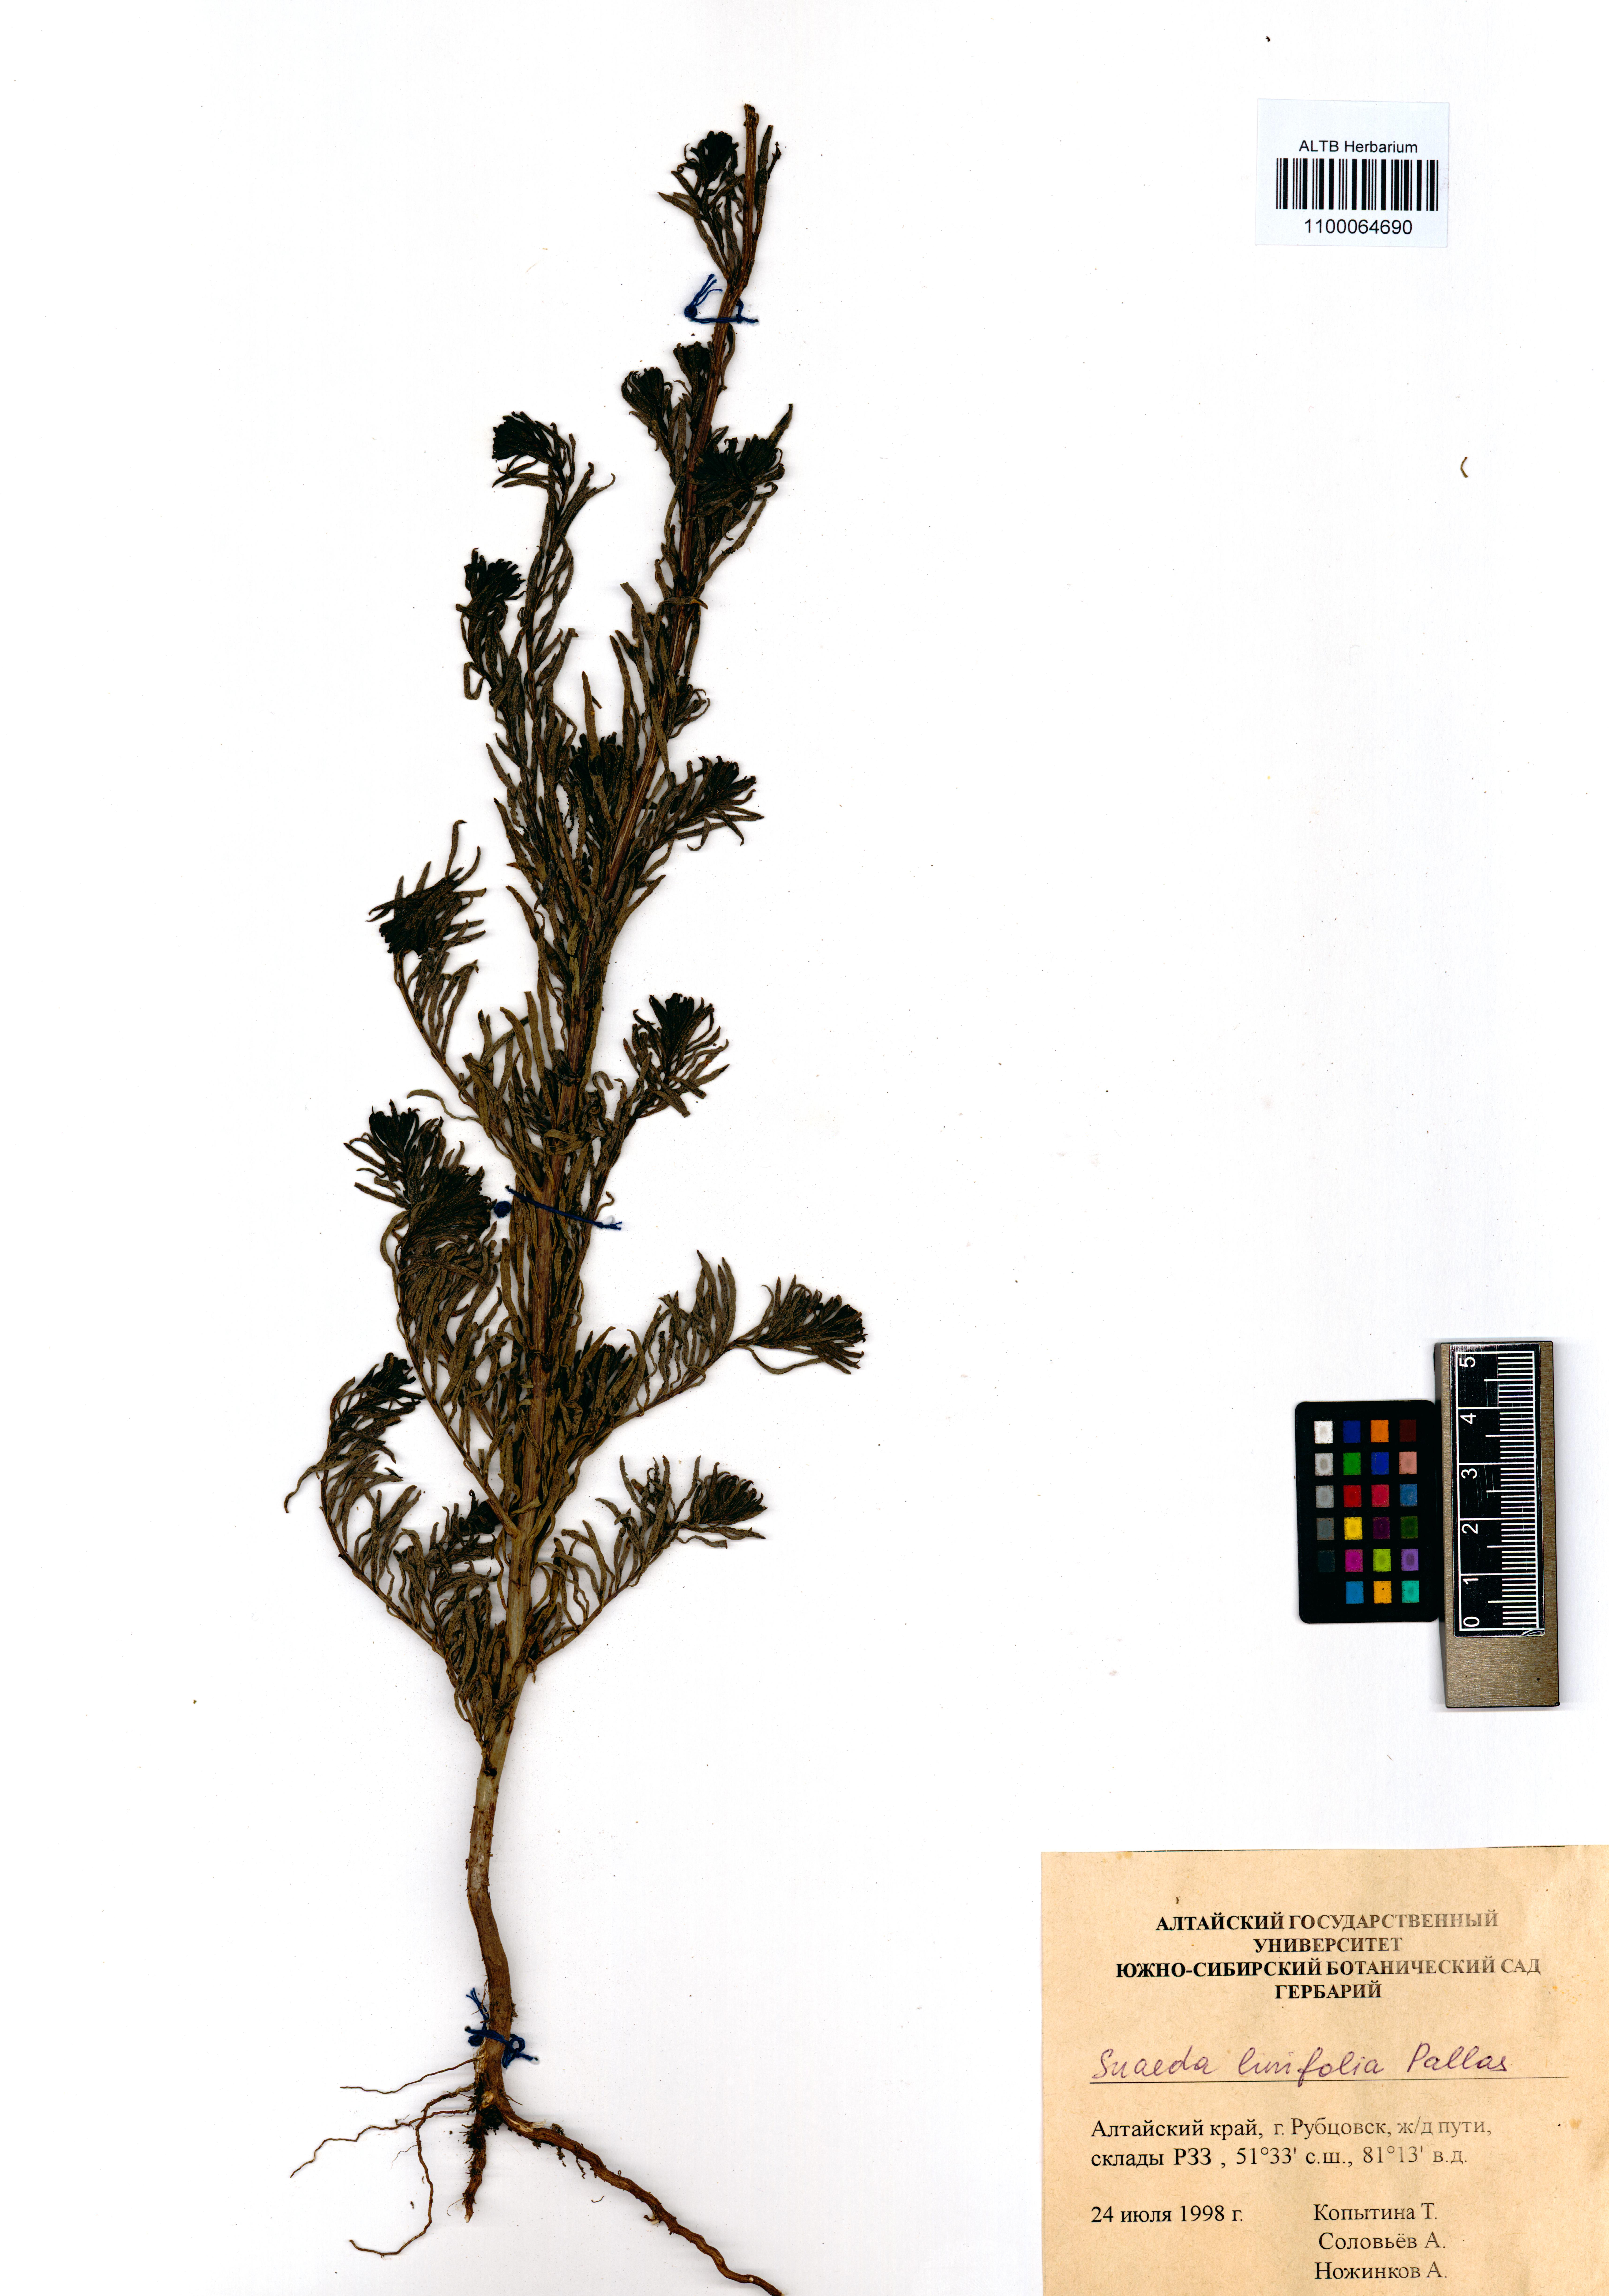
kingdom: Plantae
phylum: Tracheophyta
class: Magnoliopsida
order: Caryophyllales
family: Amaranthaceae
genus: Suaeda
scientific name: Suaeda linifolia
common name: Pin-leaf seepweed
